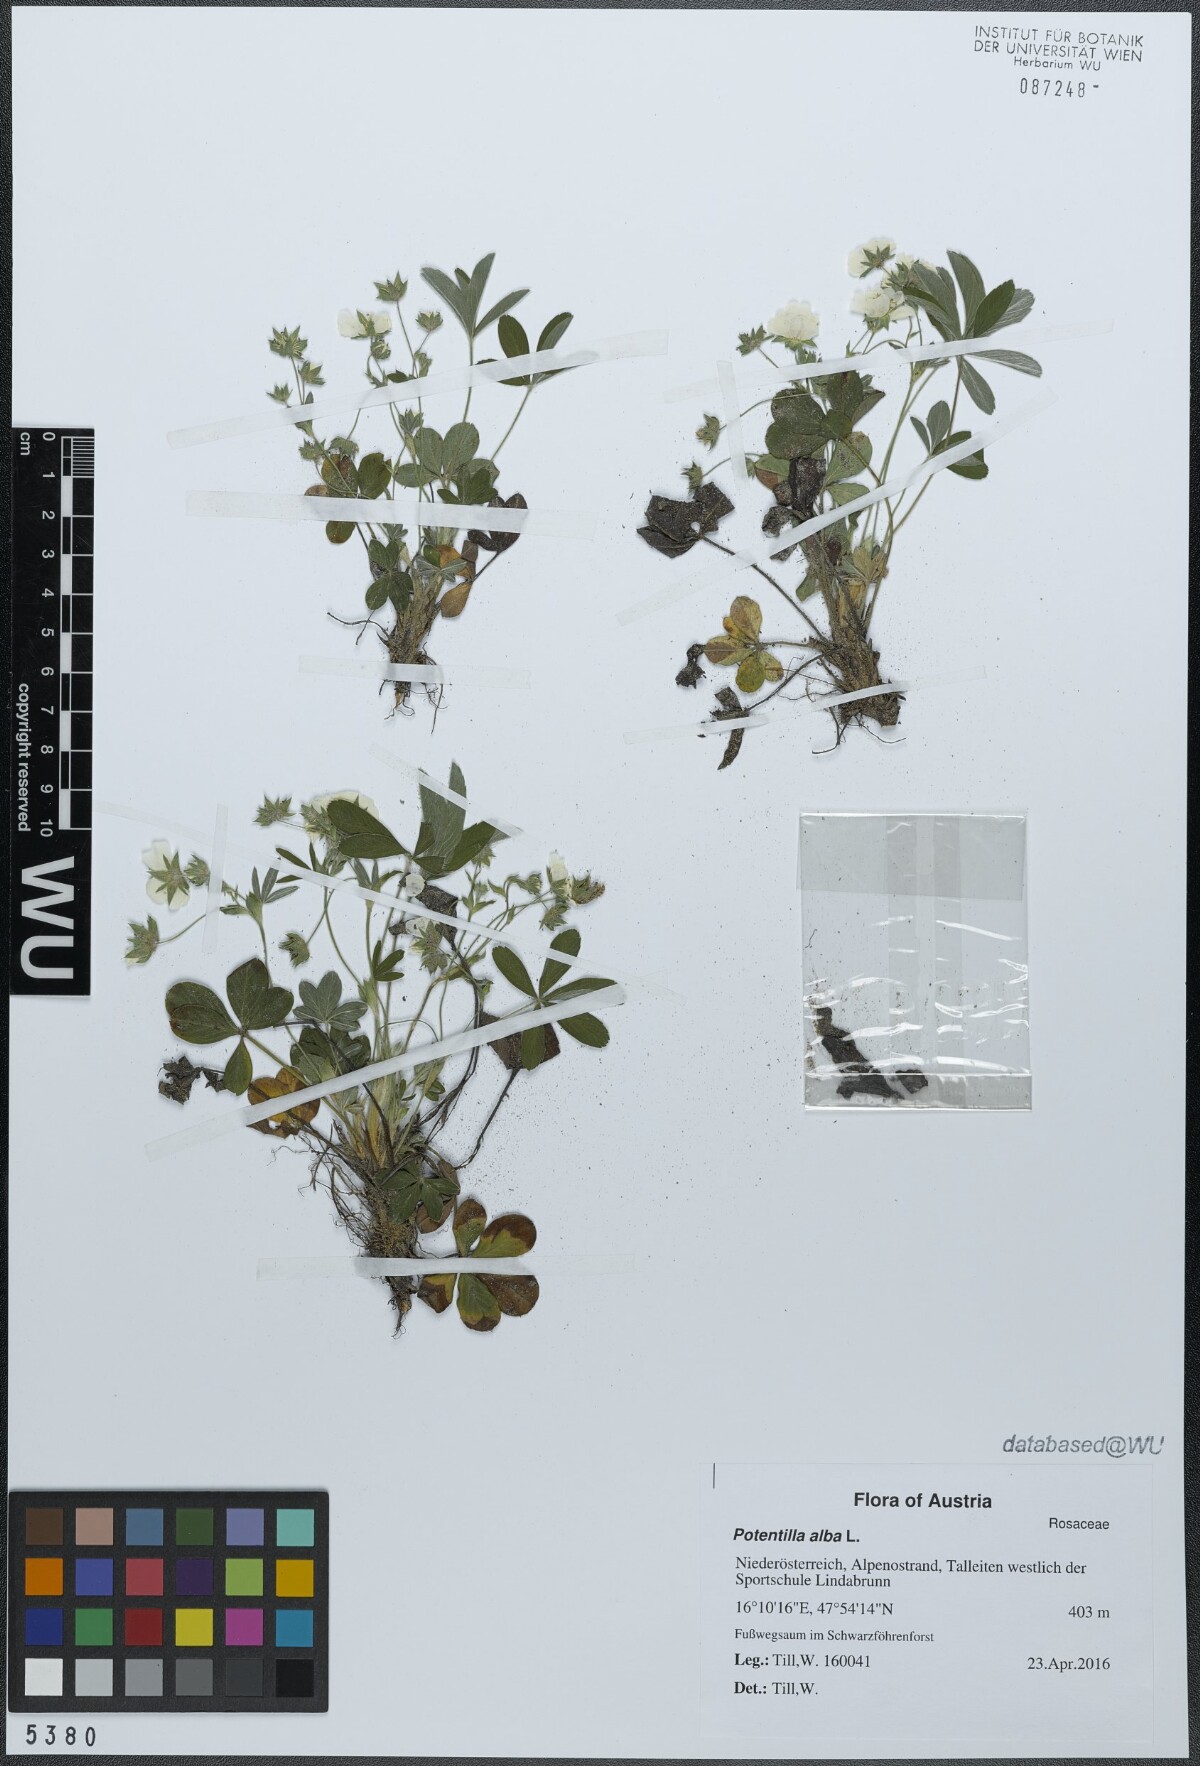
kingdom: Plantae
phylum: Tracheophyta
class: Magnoliopsida
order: Rosales
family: Rosaceae
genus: Potentilla
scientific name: Potentilla alba
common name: White cinquefoil
